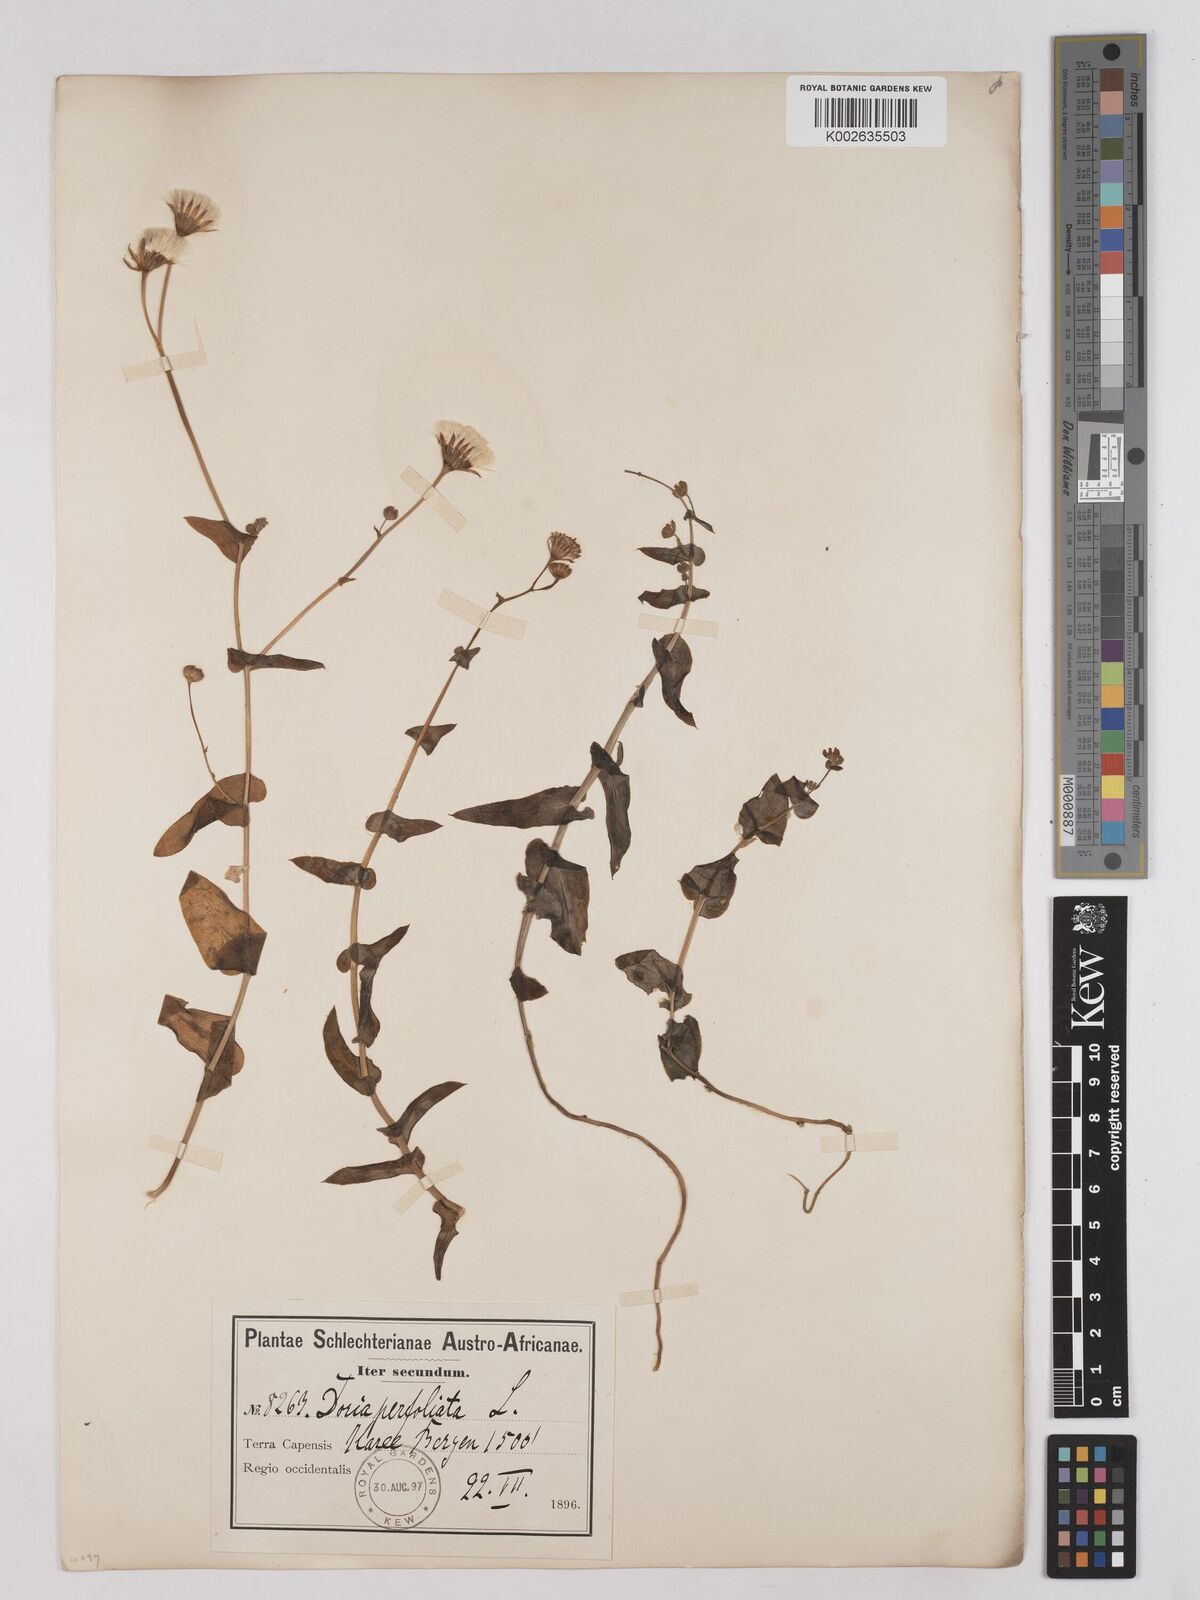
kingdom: Plantae
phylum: Tracheophyta
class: Magnoliopsida
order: Asterales
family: Asteraceae
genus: Othonna
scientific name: Othonna perfoliata
